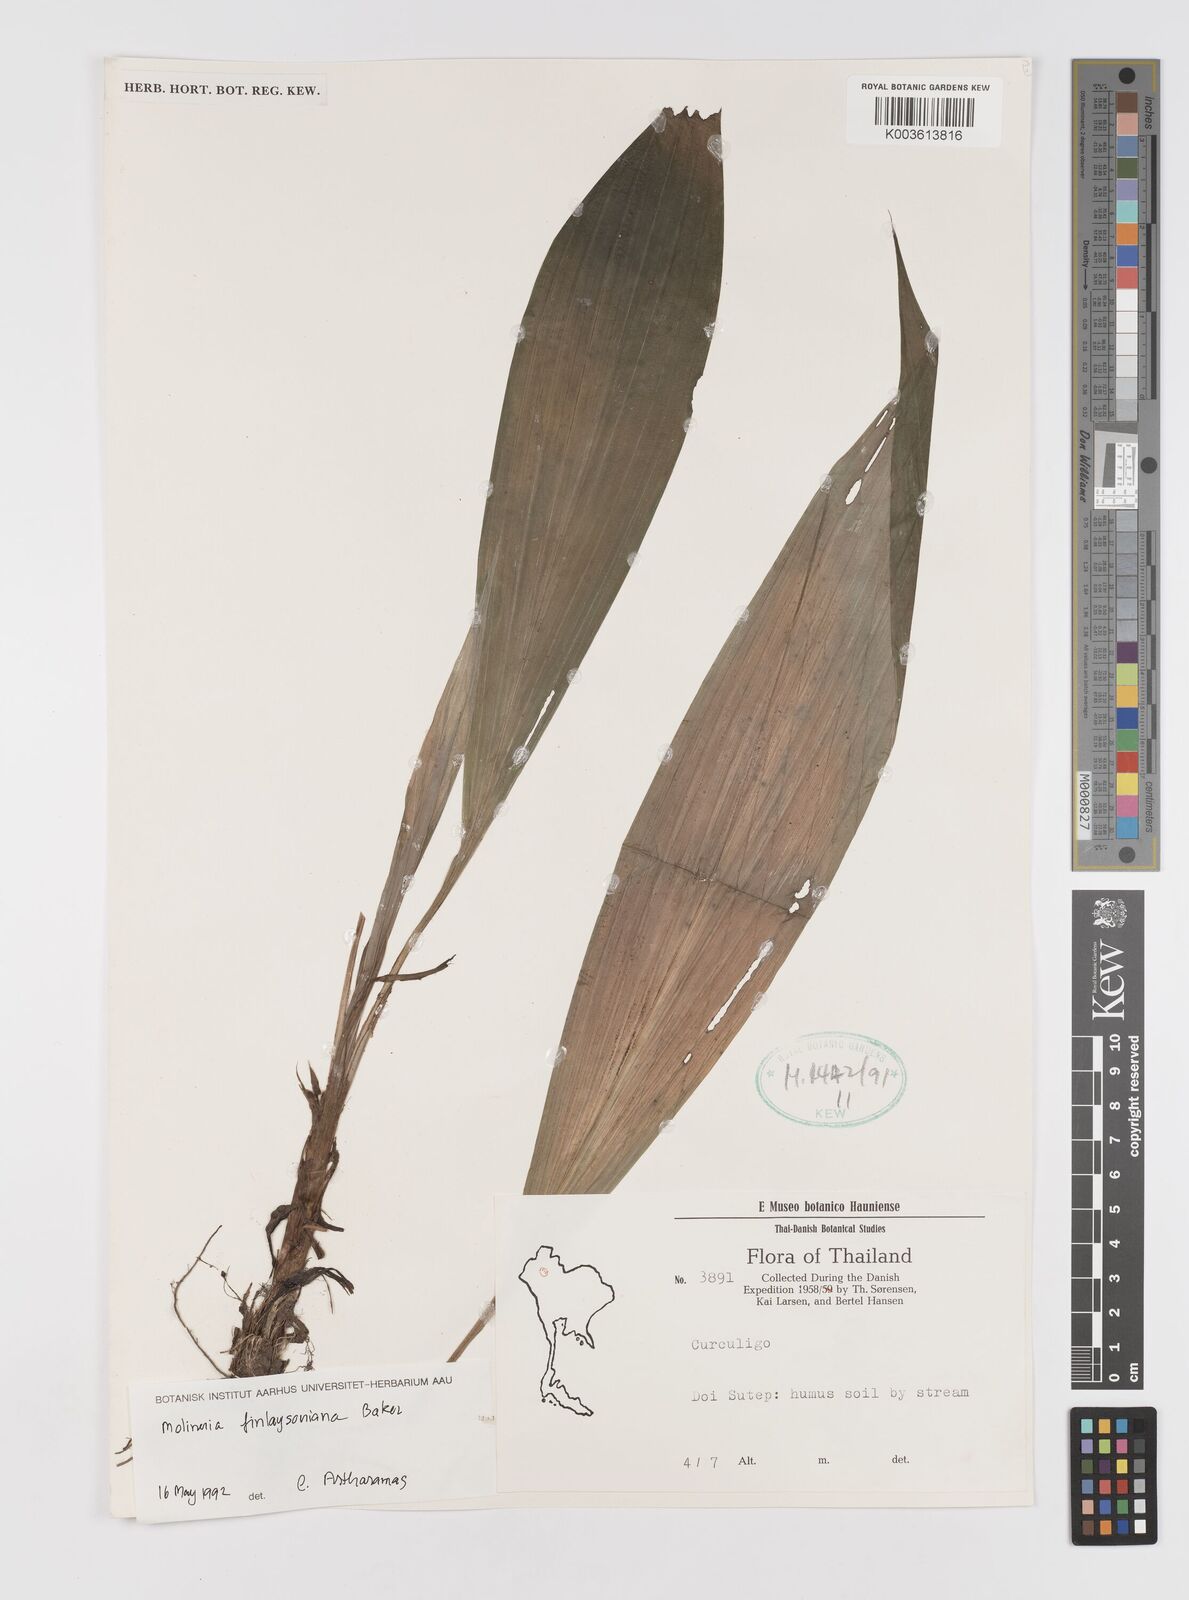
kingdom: Plantae
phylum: Tracheophyta
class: Liliopsida
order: Asparagales
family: Hypoxidaceae
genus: Curculigo
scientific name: Curculigo trichocarpa
